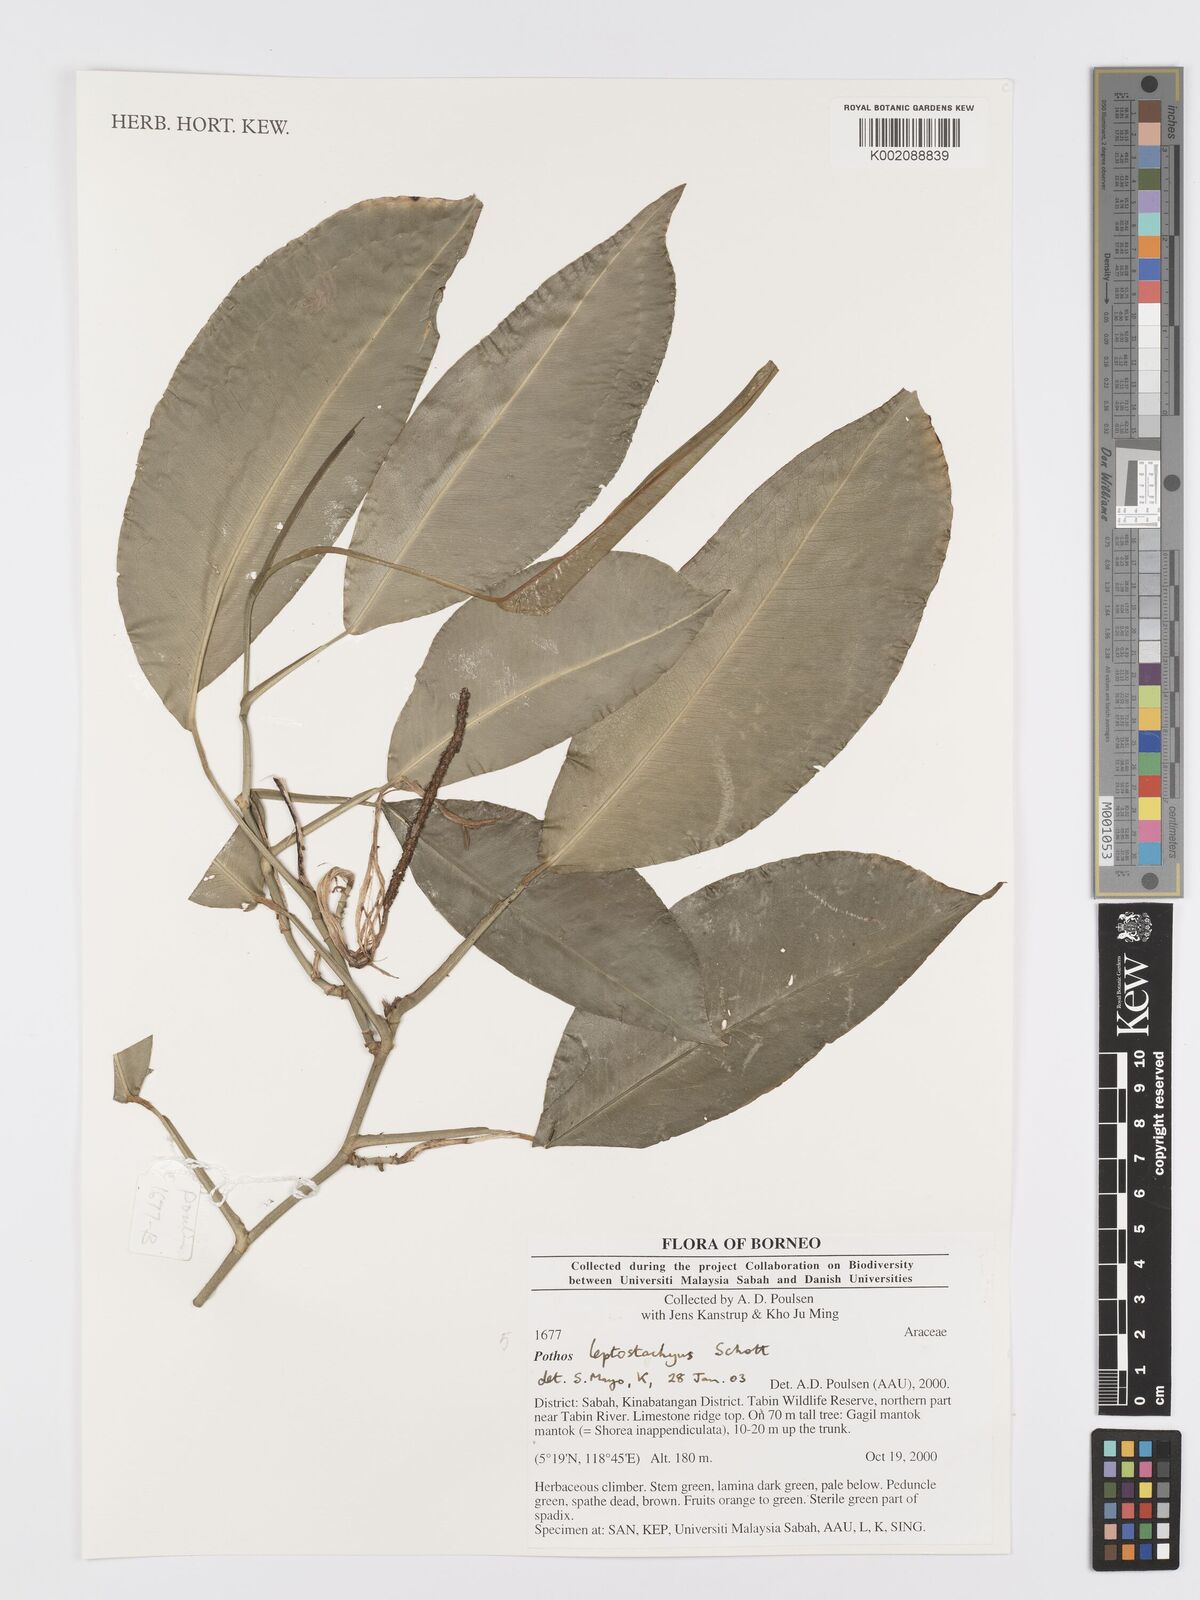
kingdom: Plantae
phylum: Tracheophyta
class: Liliopsida
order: Alismatales
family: Araceae
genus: Pothos
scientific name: Pothos leptostachyus
